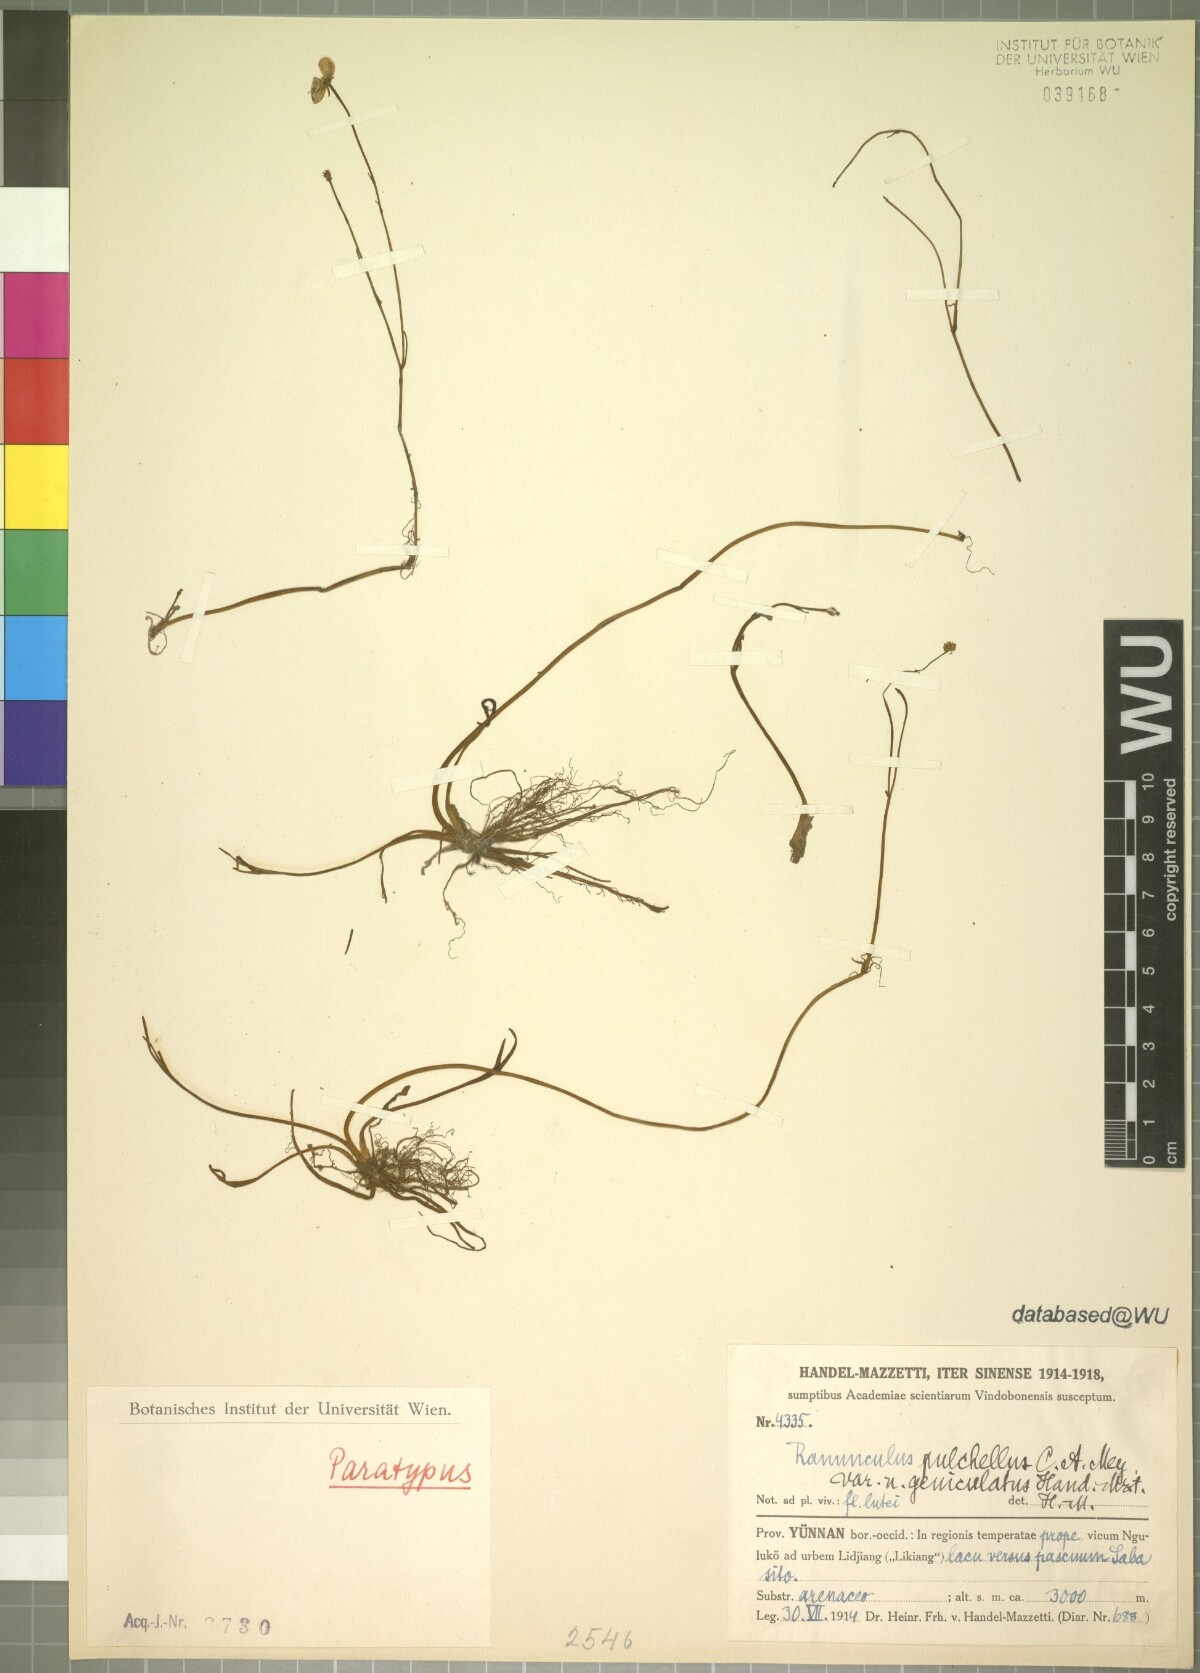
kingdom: Plantae
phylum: Tracheophyta
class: Magnoliopsida
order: Ranunculales
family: Ranunculaceae
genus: Ranunculus
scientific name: Ranunculus mazzettii
